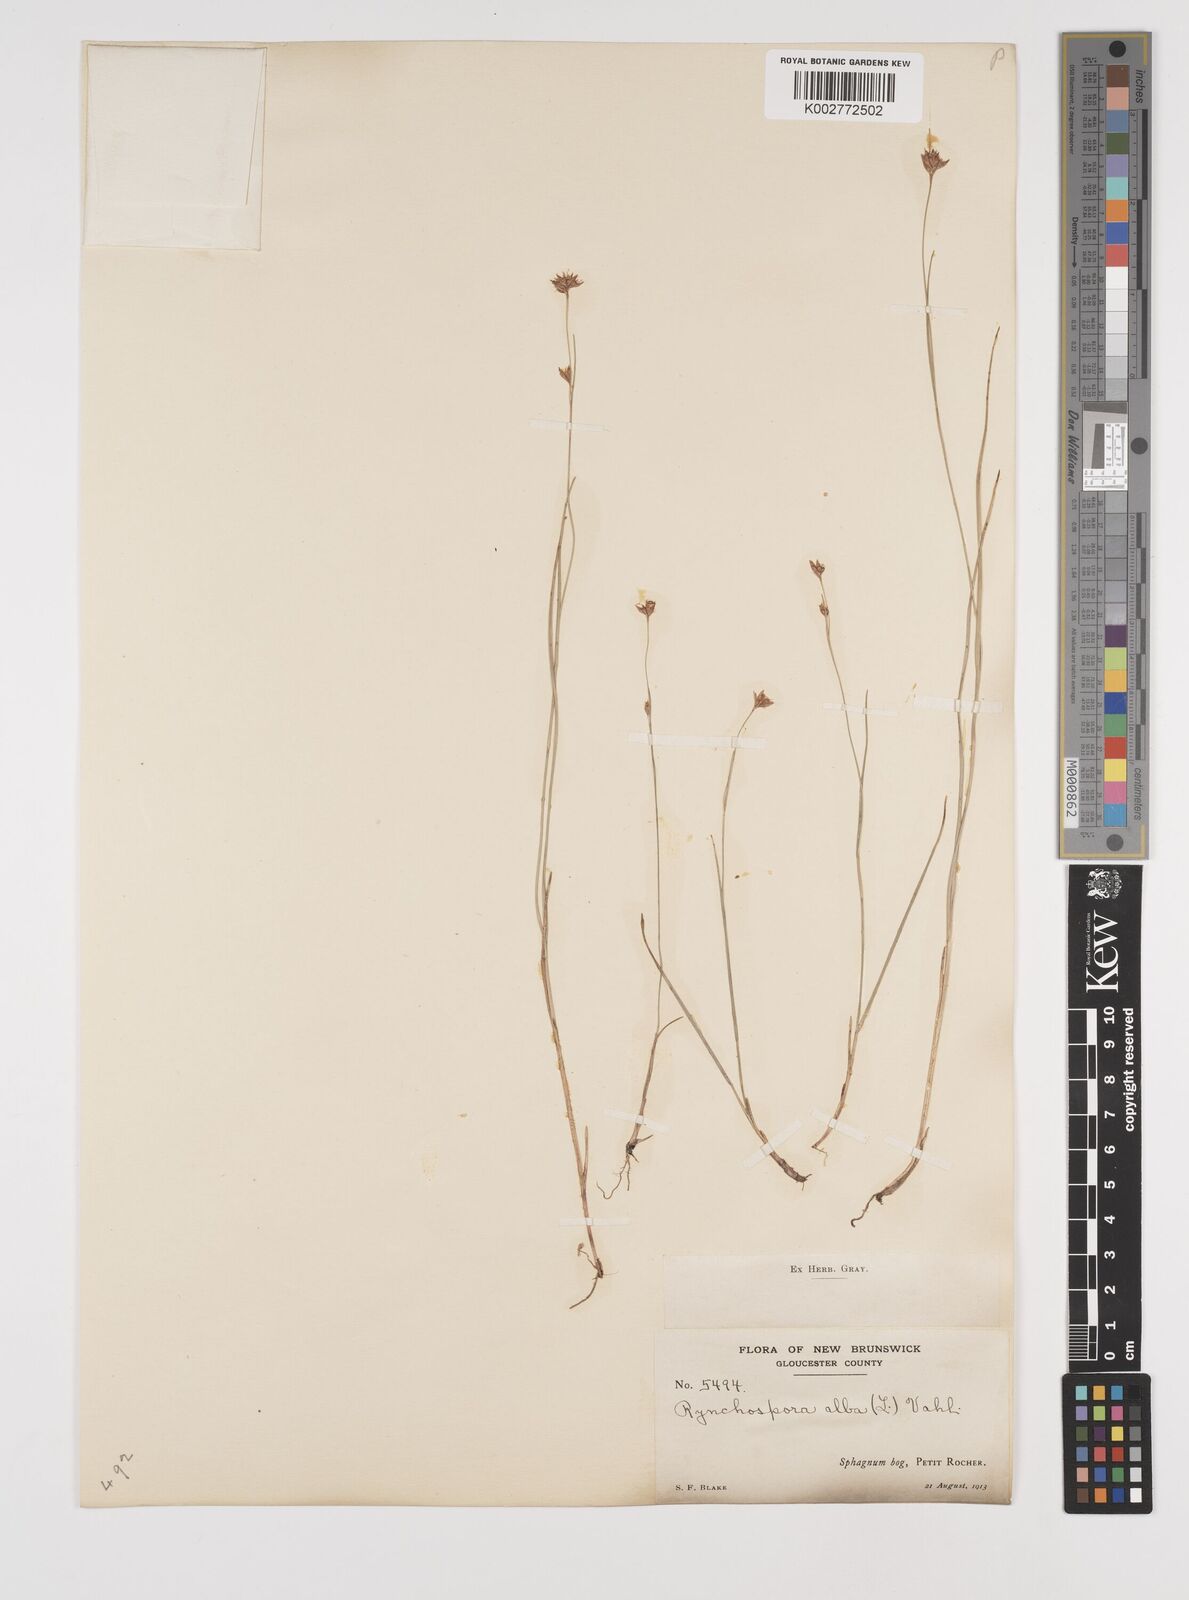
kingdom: Plantae
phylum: Tracheophyta
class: Liliopsida
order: Poales
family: Cyperaceae
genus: Rhynchospora
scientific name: Rhynchospora alba
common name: White beak-sedge
